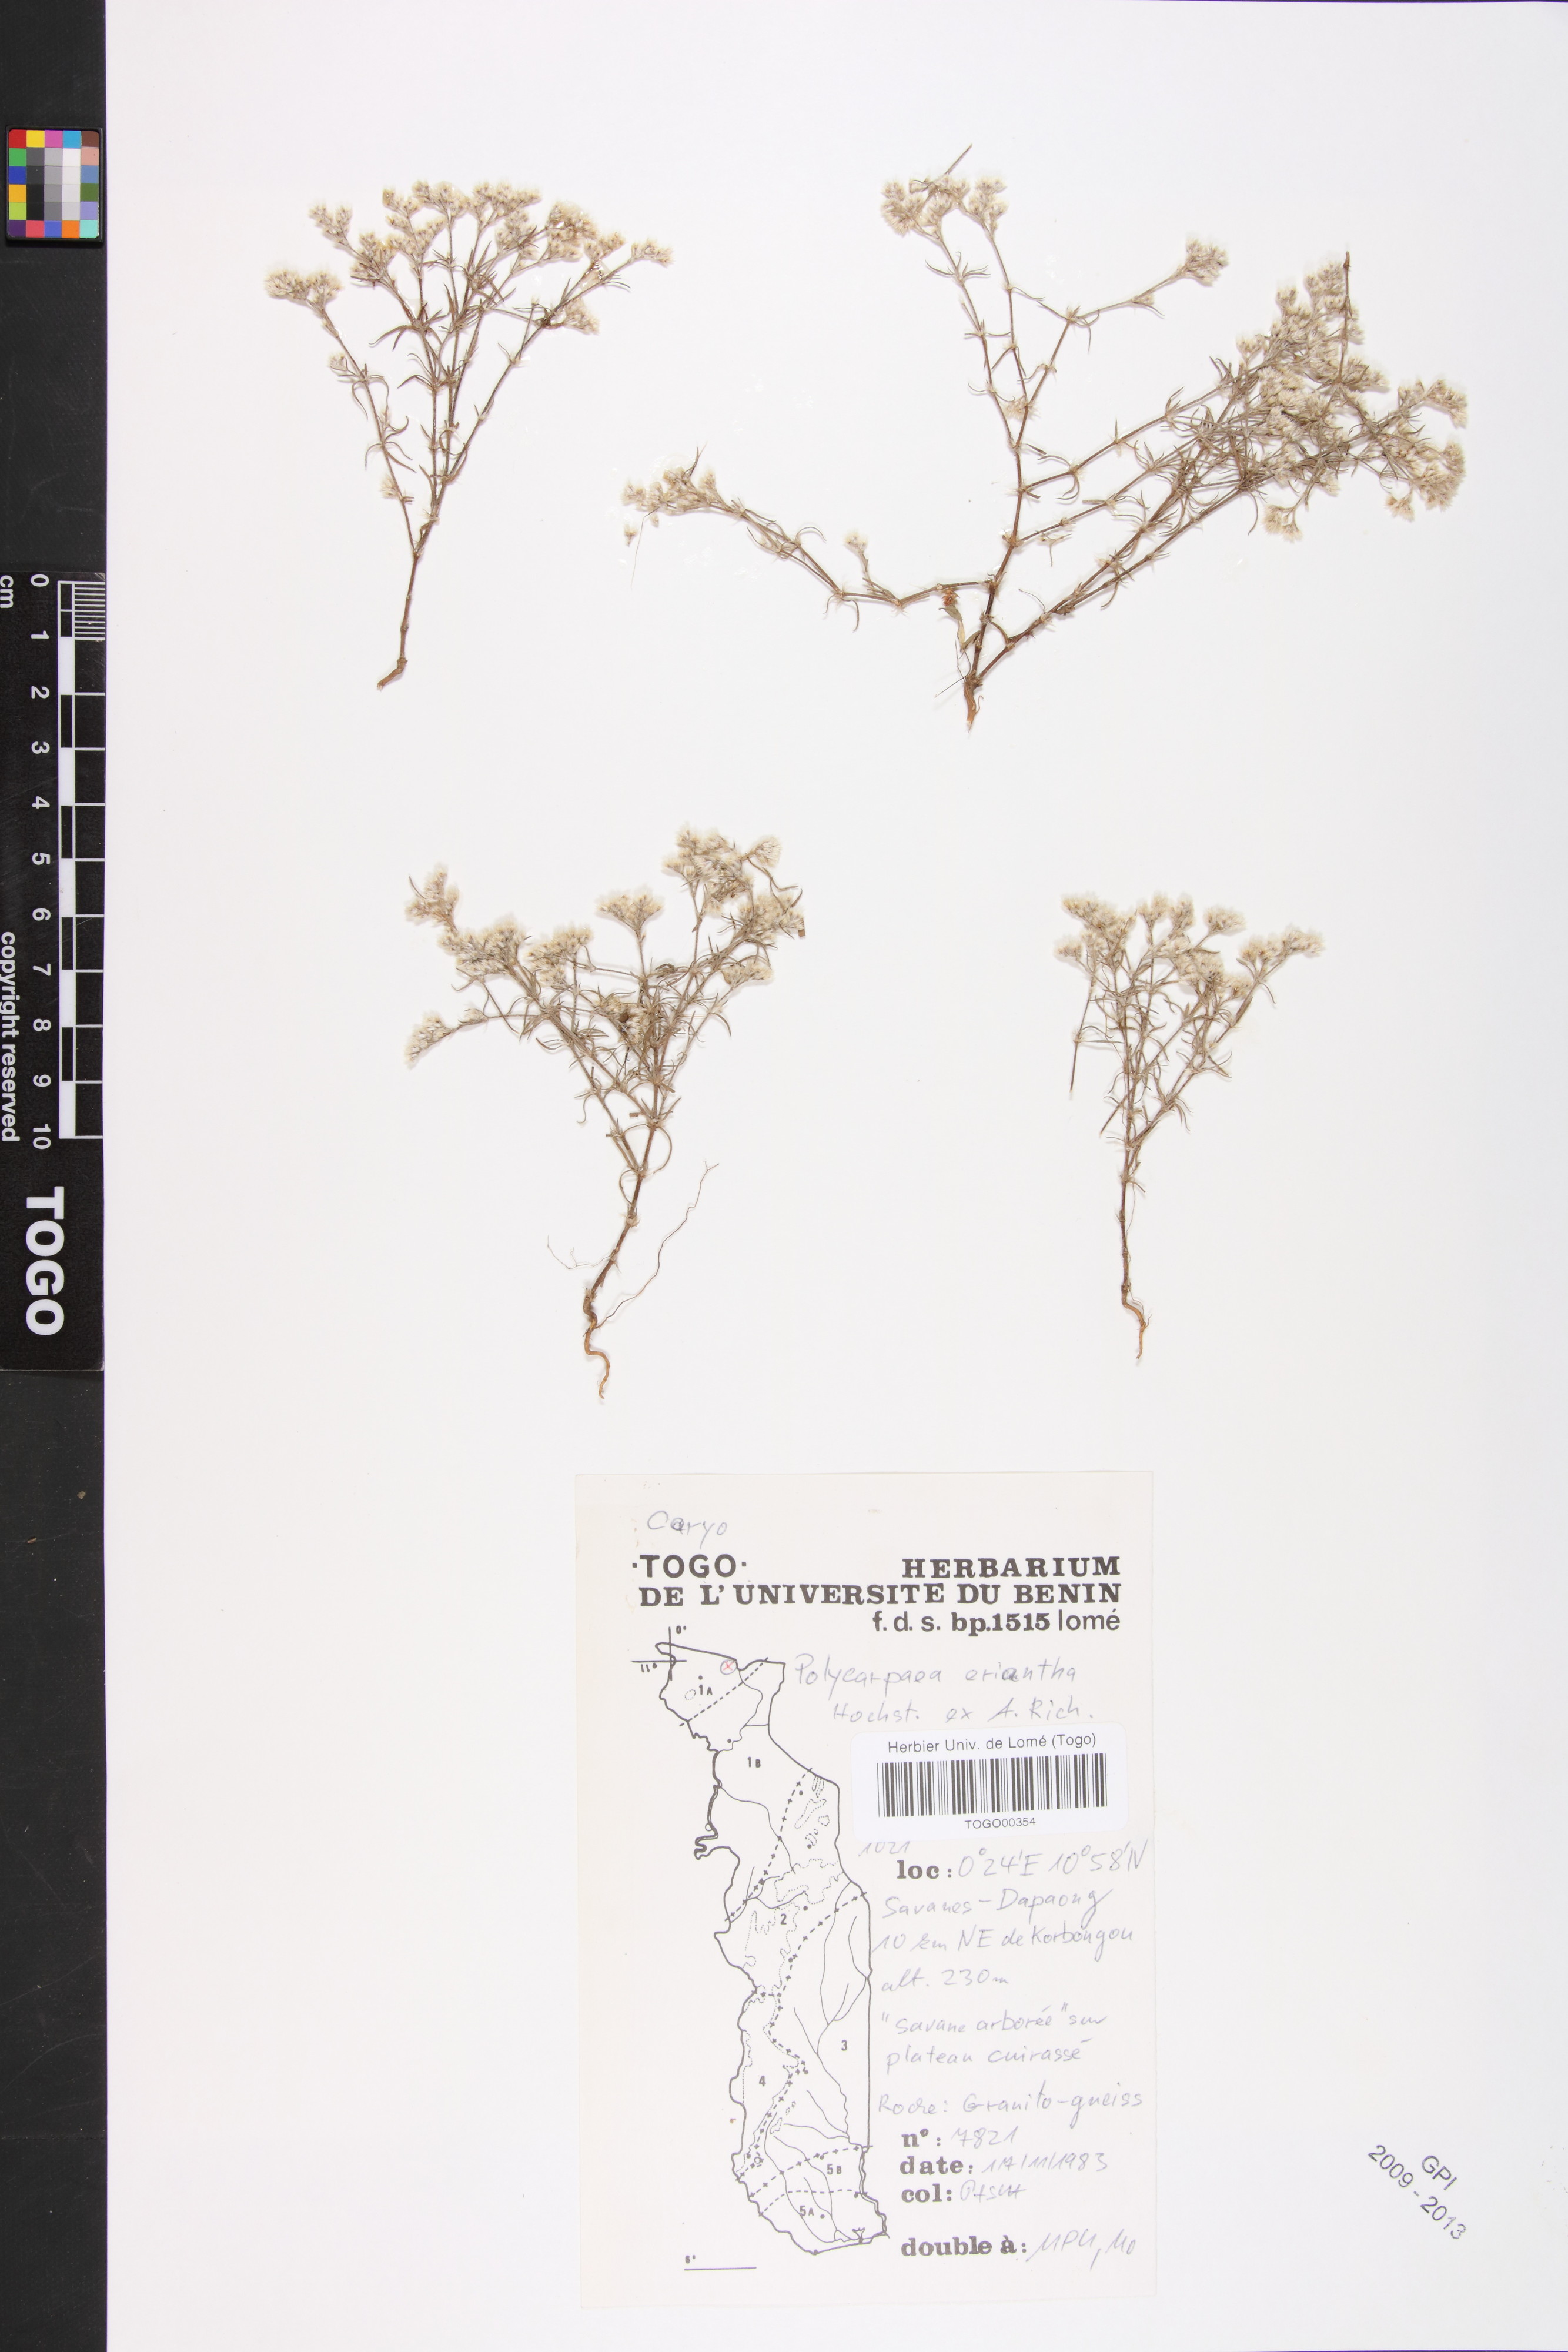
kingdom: Plantae
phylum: Tracheophyta
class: Magnoliopsida
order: Caryophyllales
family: Caryophyllaceae
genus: Polycarpaea
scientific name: Polycarpaea eriantha
